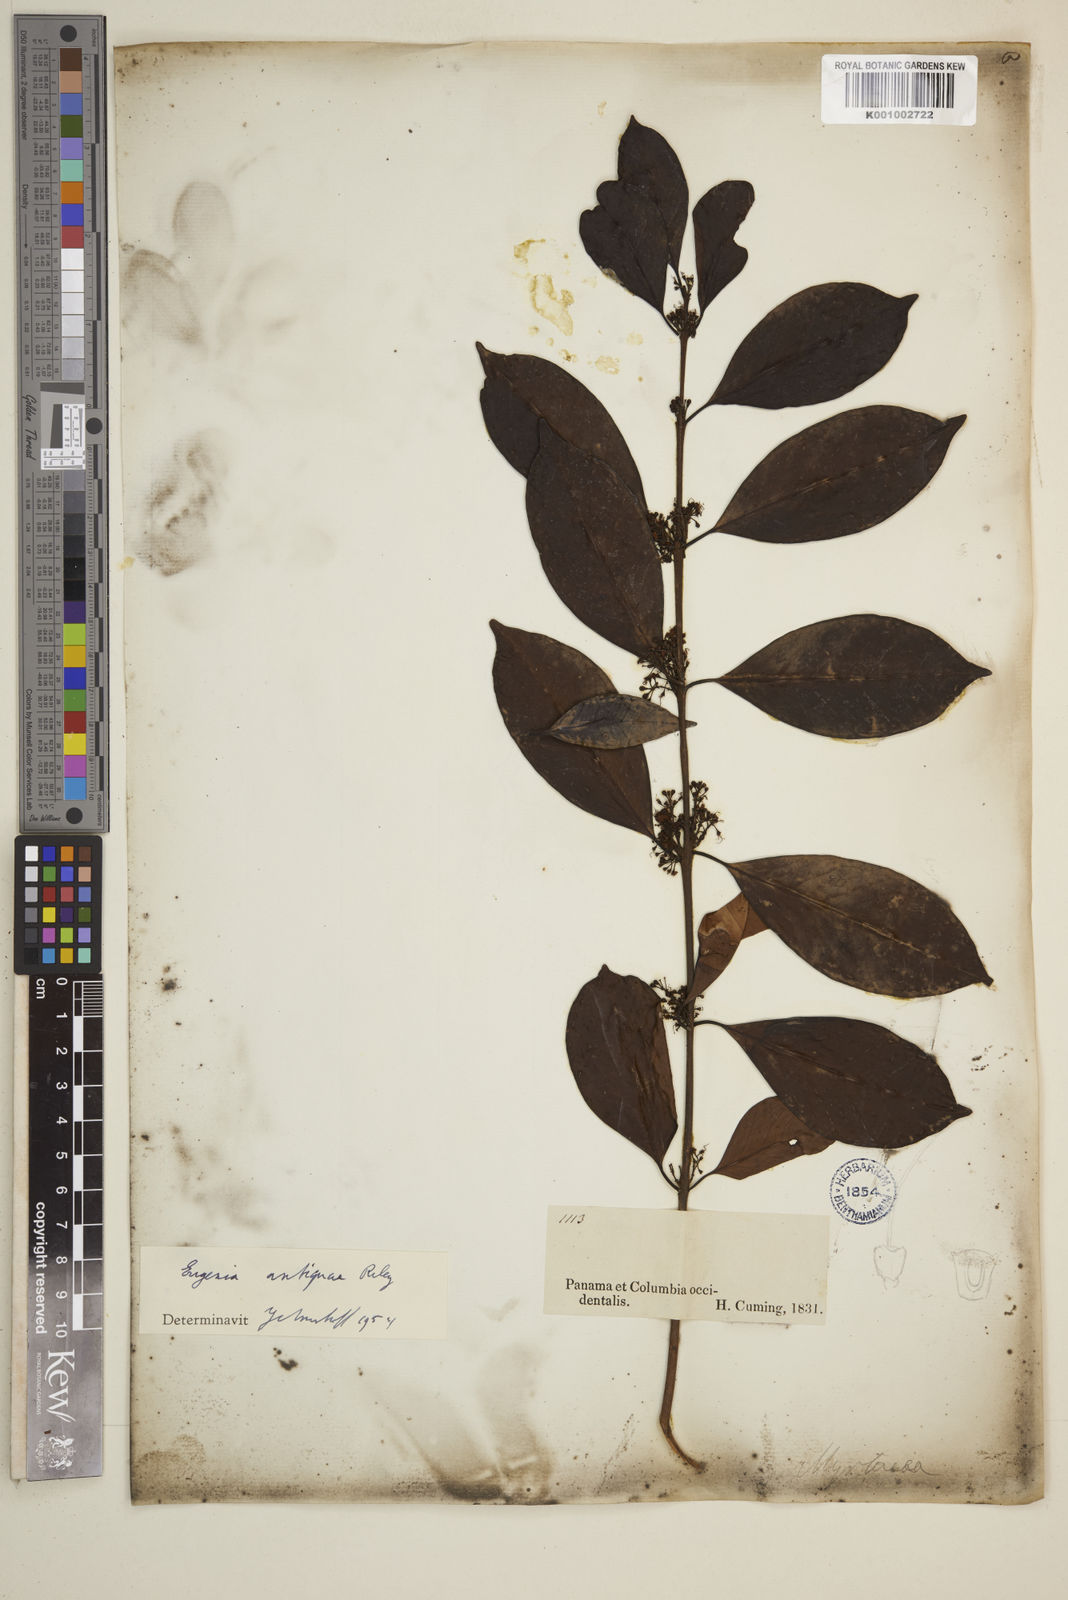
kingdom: Plantae
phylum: Tracheophyta
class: Magnoliopsida
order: Myrtales
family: Myrtaceae
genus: Eugenia
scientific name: Eugenia acapulcensis
